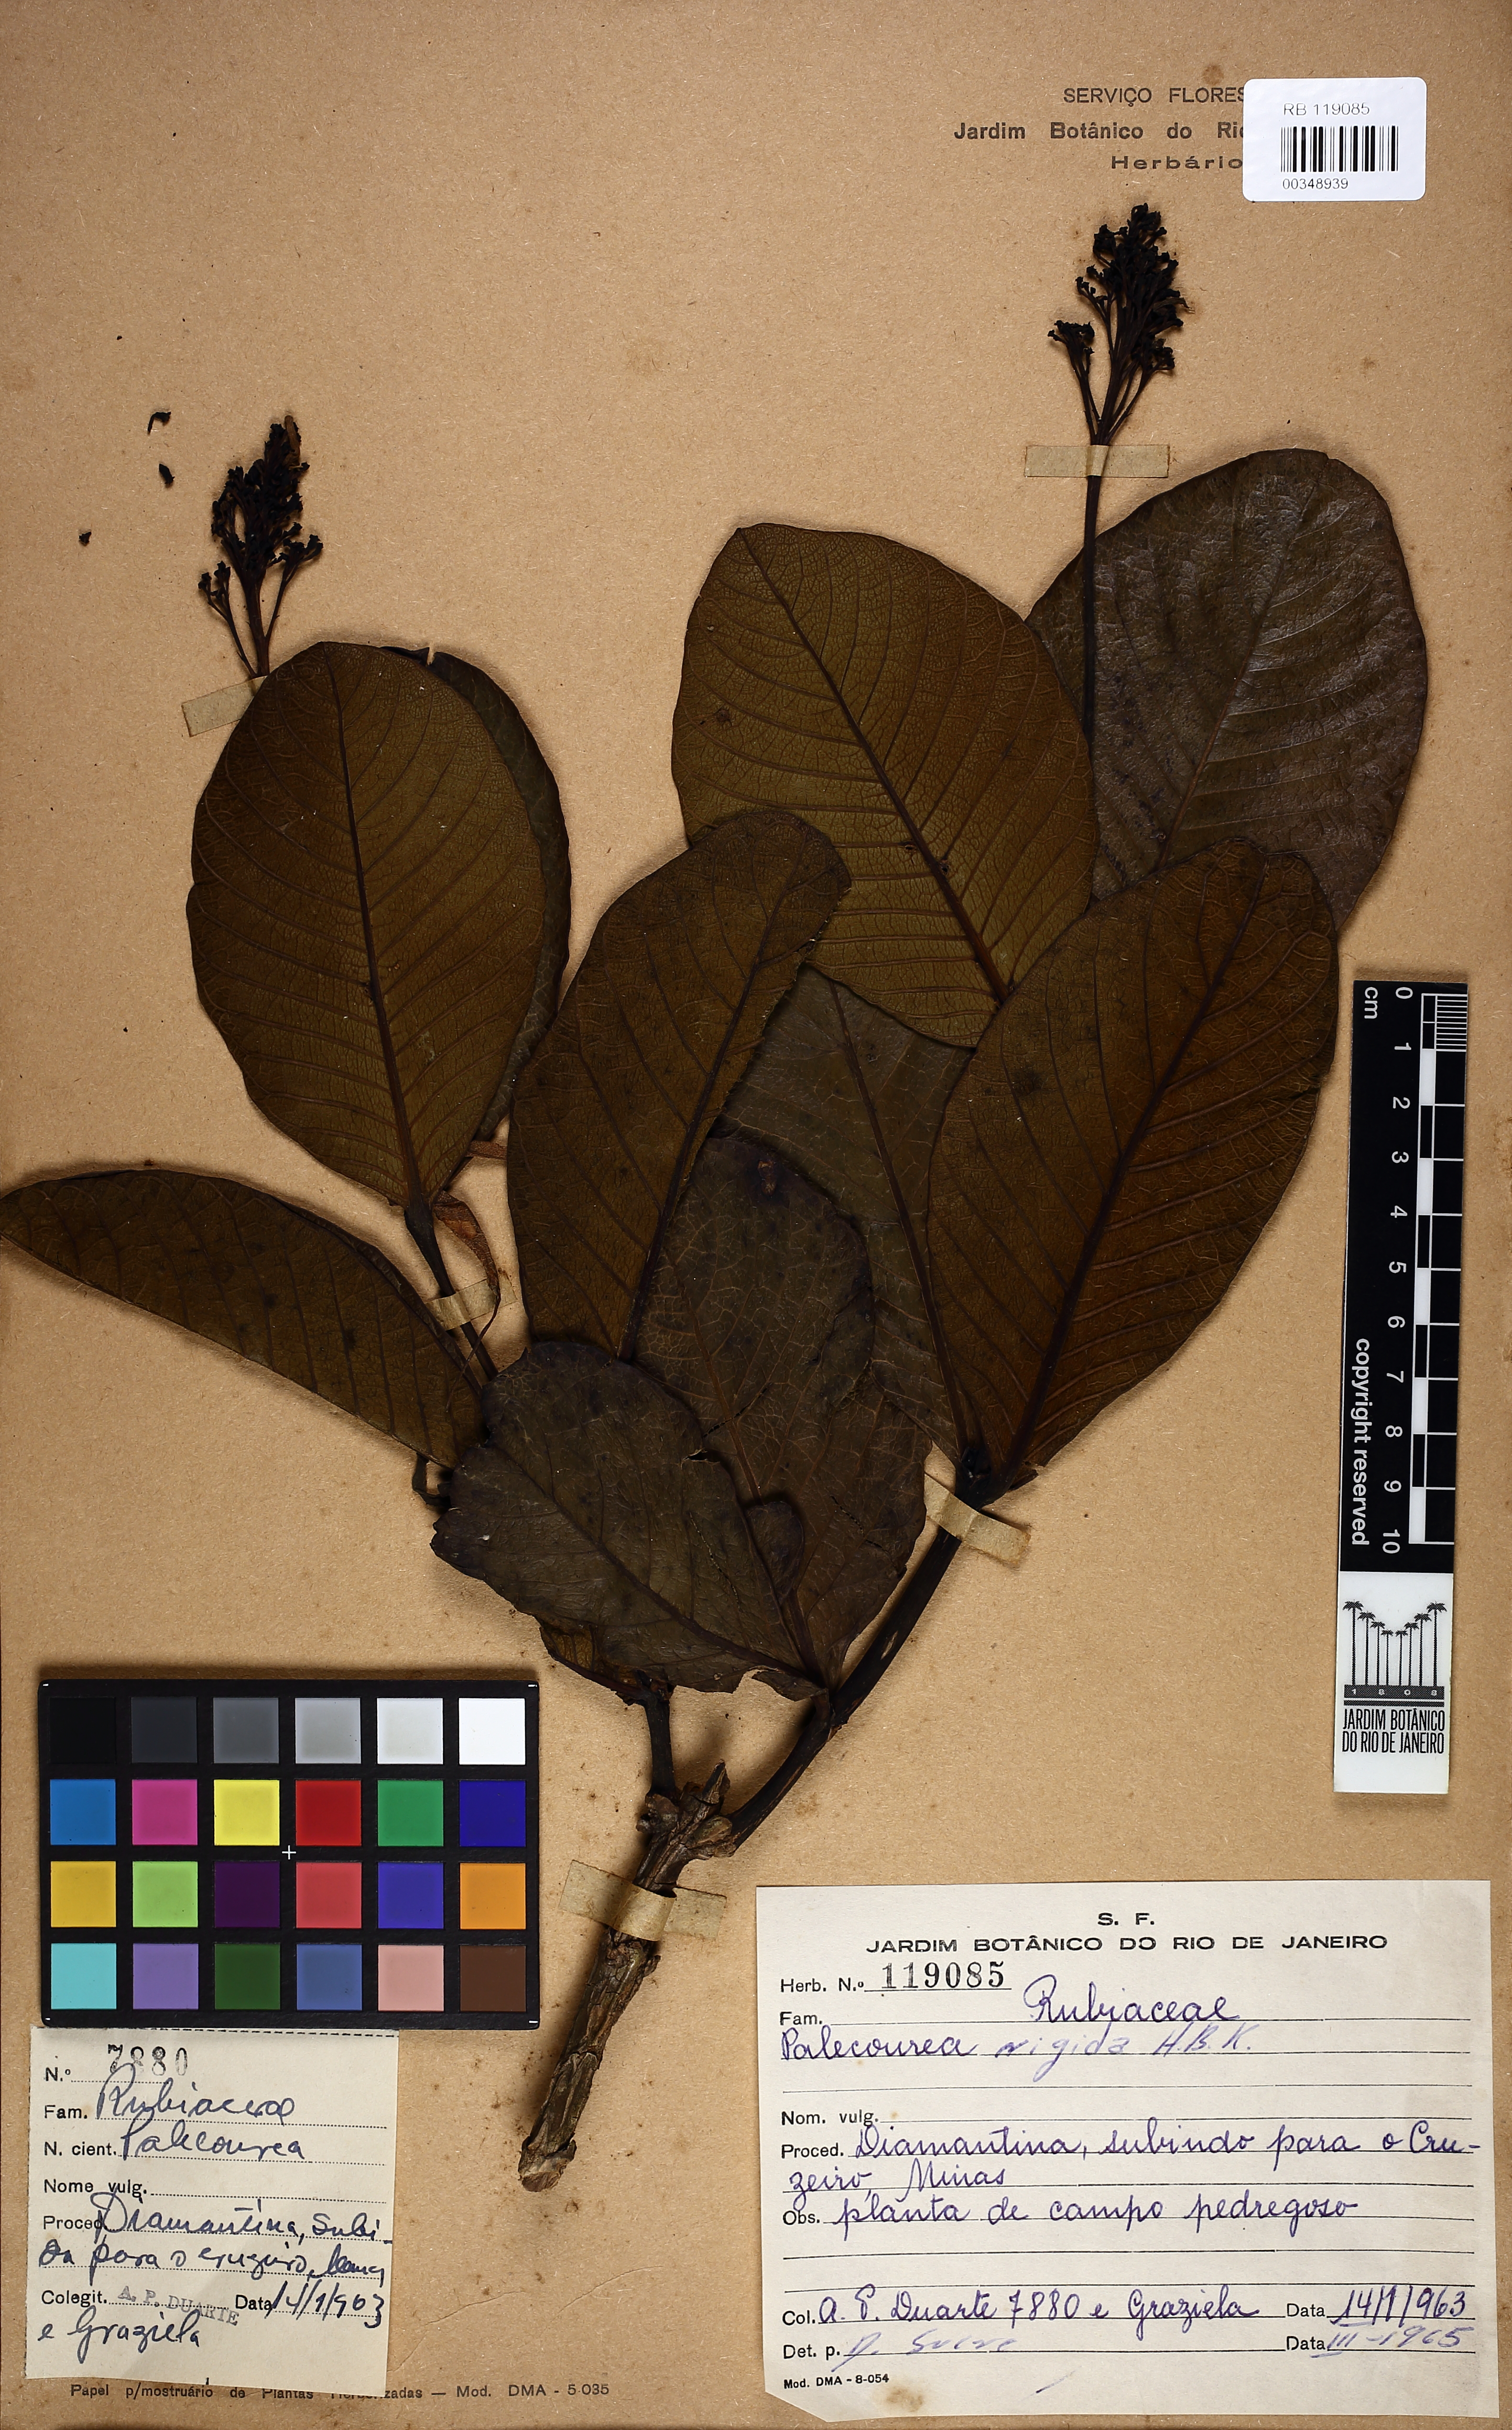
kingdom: Plantae
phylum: Tracheophyta
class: Magnoliopsida
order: Gentianales
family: Rubiaceae
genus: Palicourea
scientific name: Palicourea rigida
